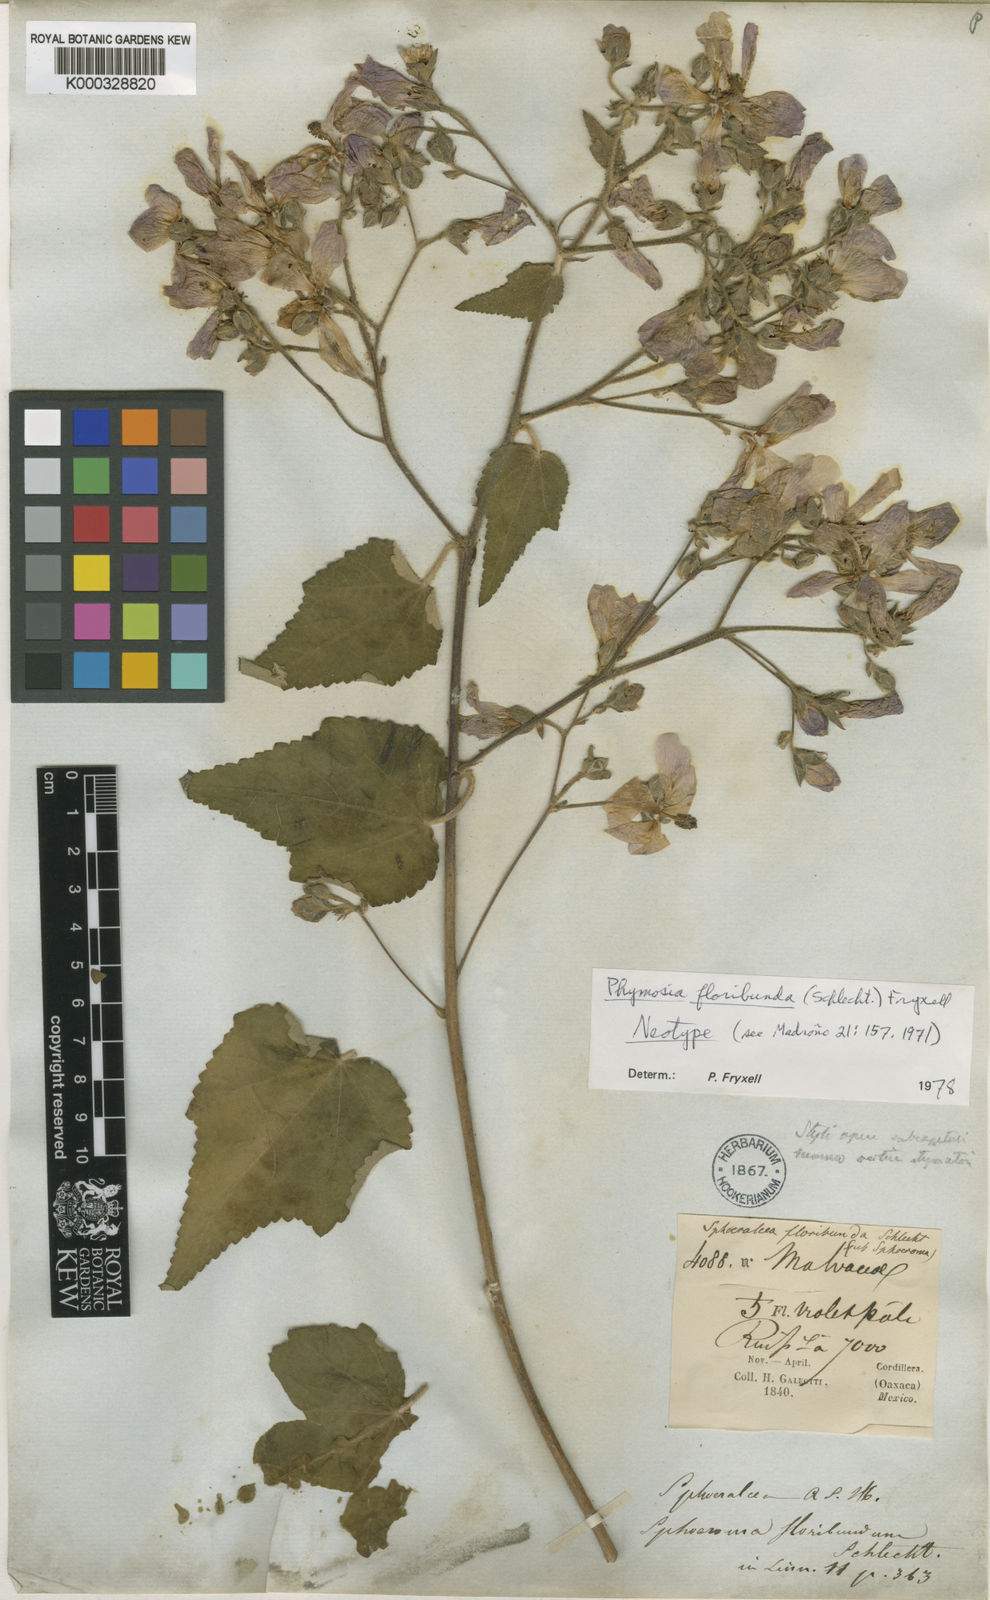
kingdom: Plantae
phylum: Tracheophyta
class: Magnoliopsida
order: Malvales
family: Malvaceae
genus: Phymosia
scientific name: Phymosia floribunda
